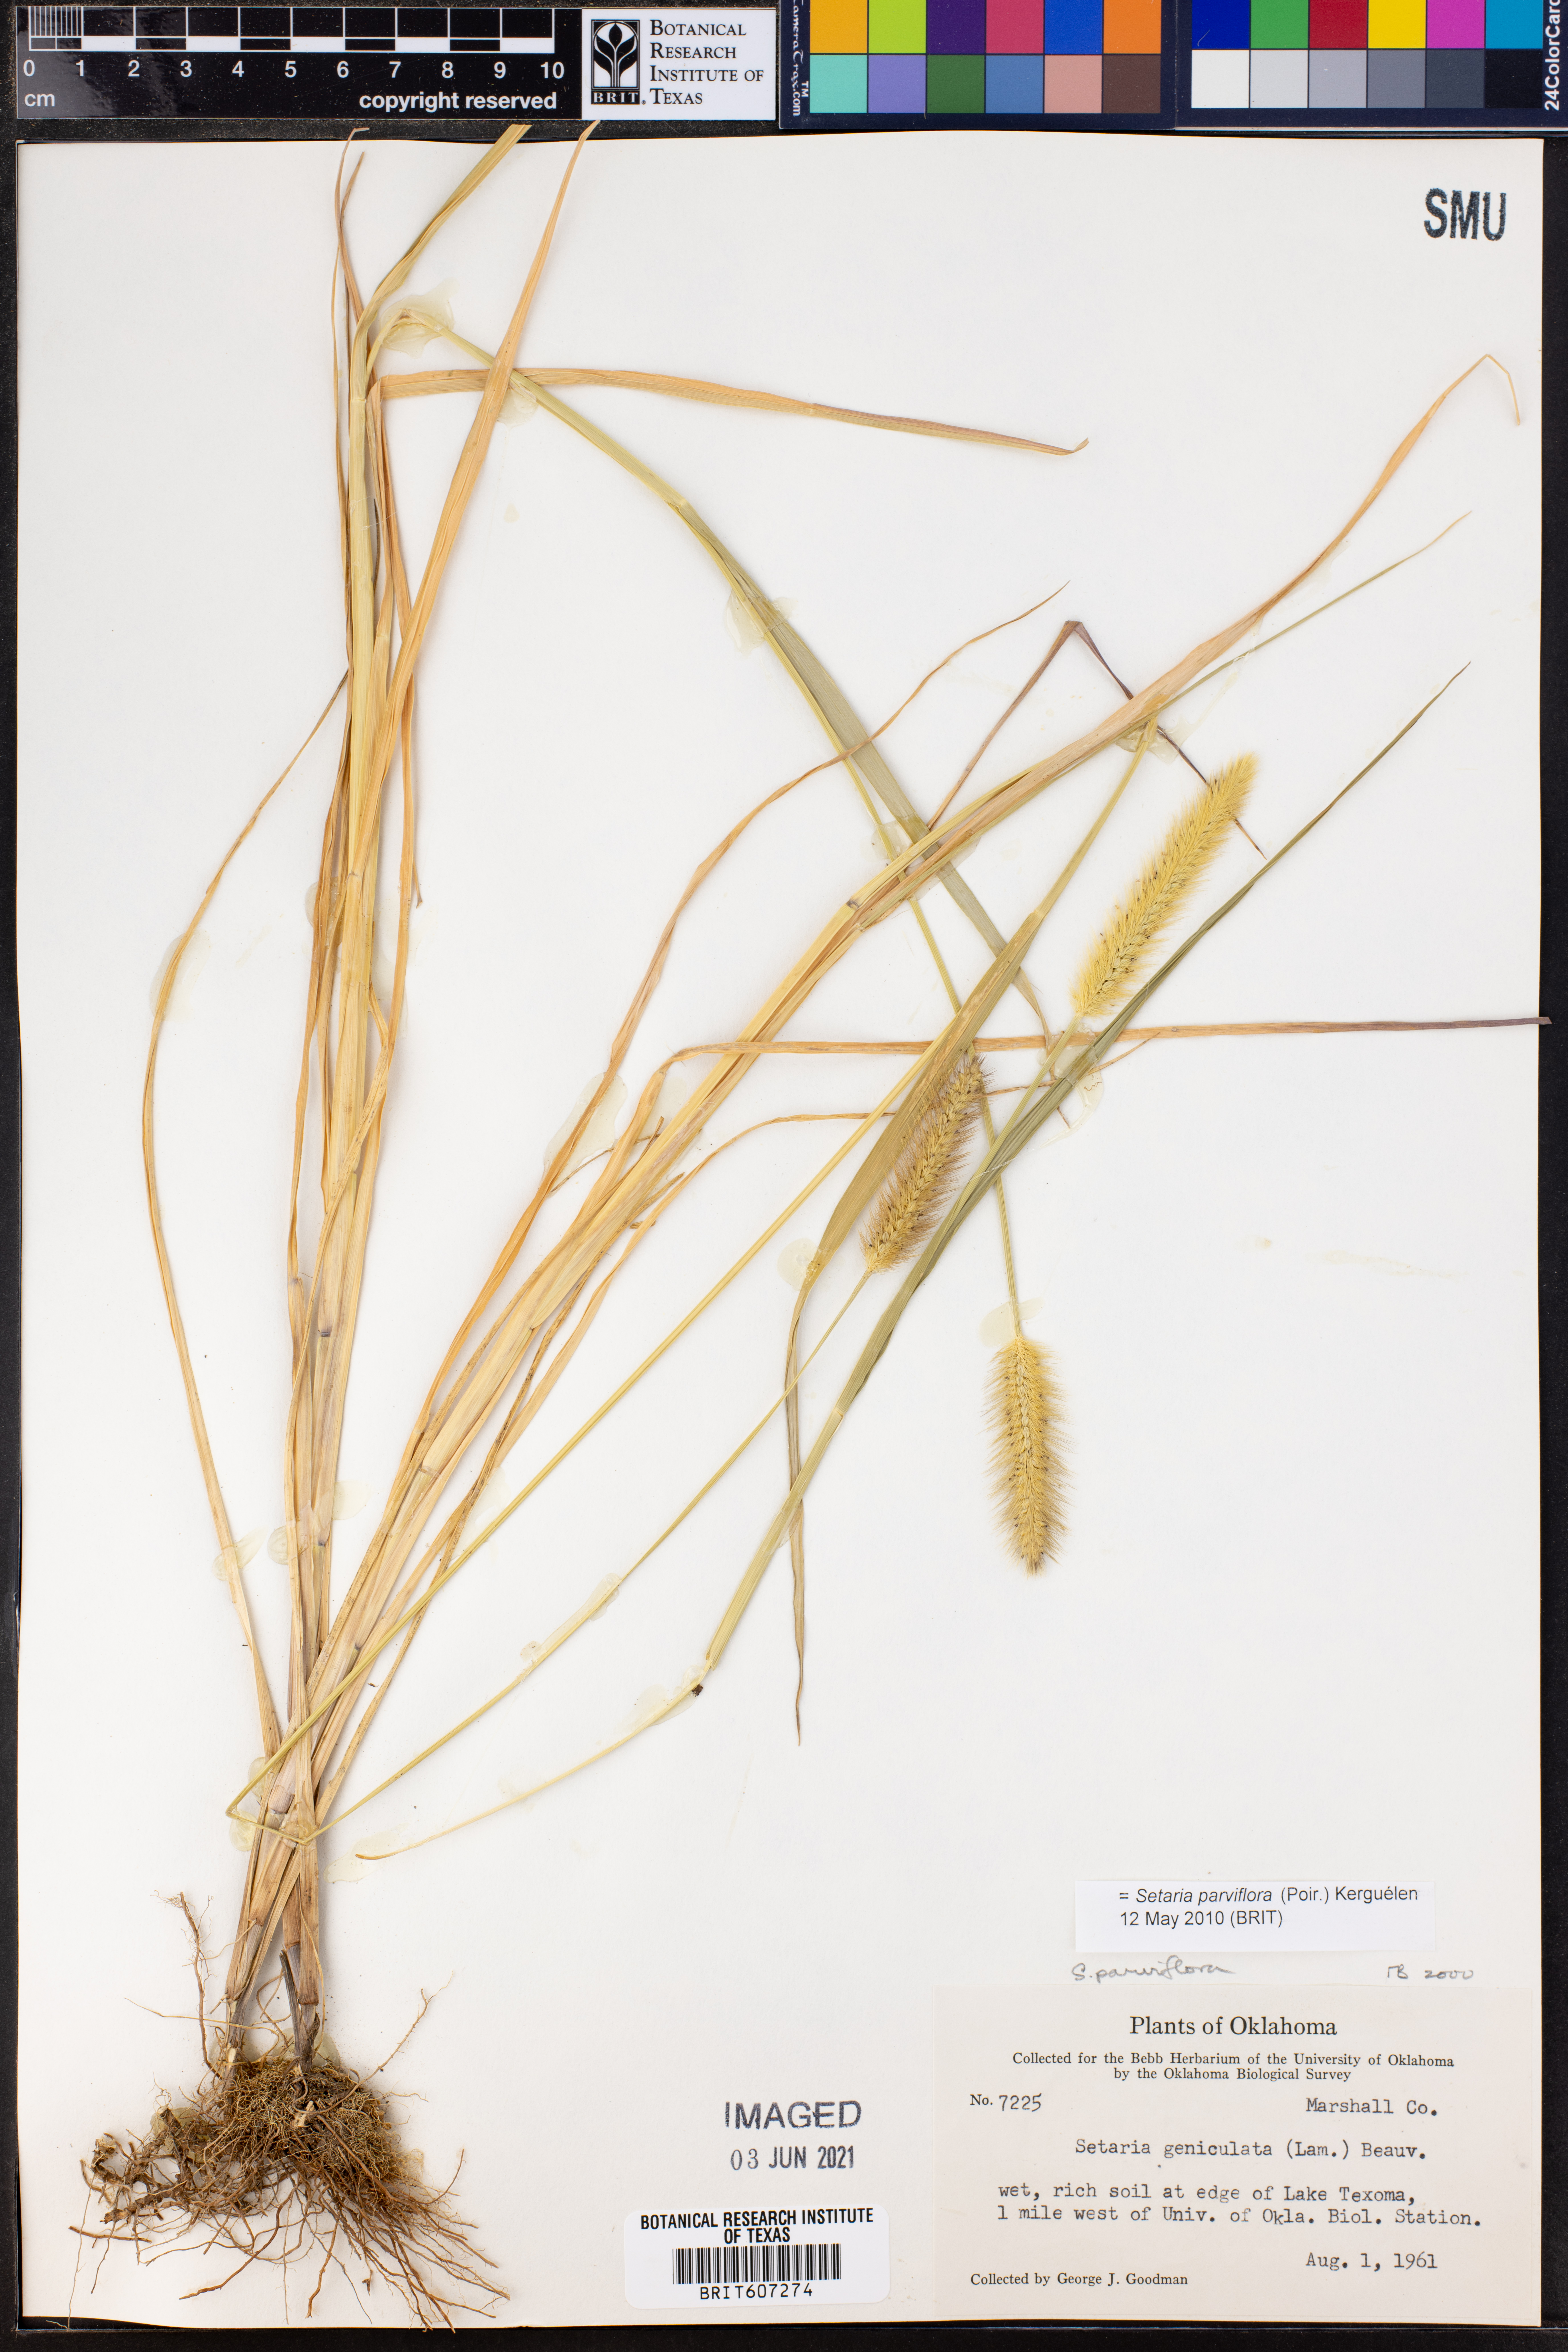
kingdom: Plantae
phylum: Tracheophyta
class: Liliopsida
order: Poales
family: Poaceae
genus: Setaria
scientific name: Setaria parviflora
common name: Knotroot bristle-grass
